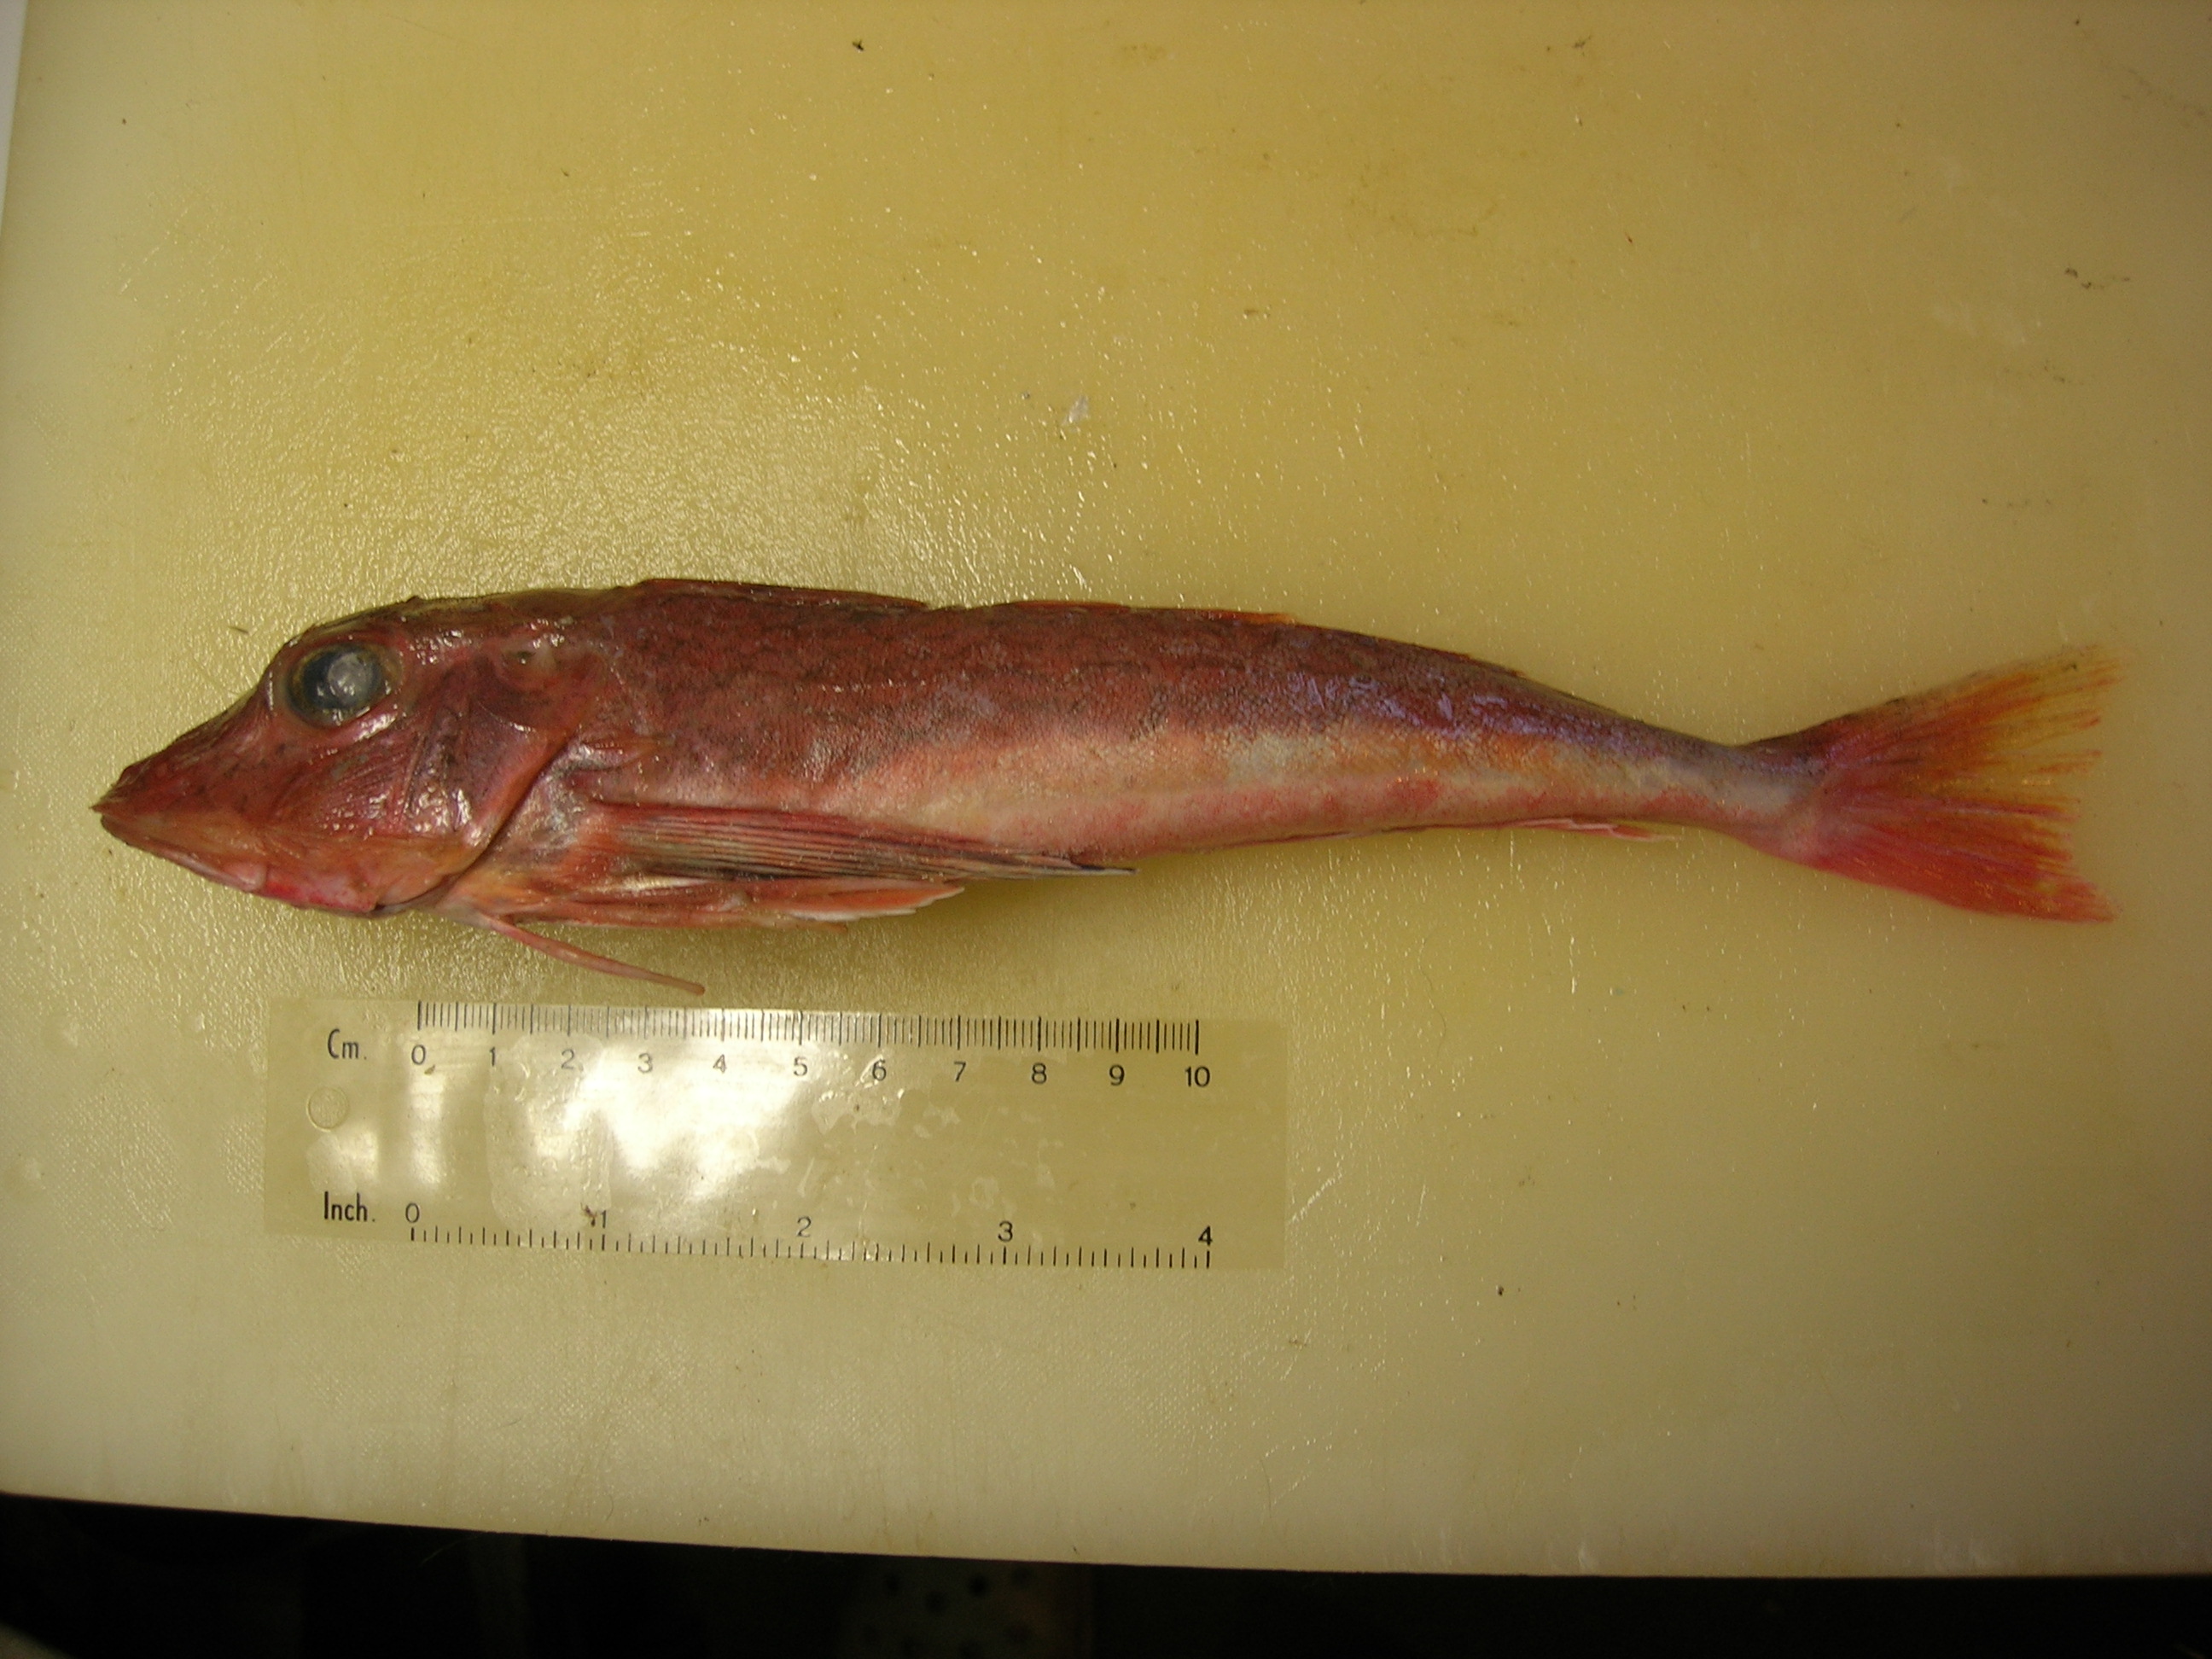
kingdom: Animalia
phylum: Chordata
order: Scorpaeniformes
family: Triglidae
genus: Chelidonichthys
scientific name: Chelidonichthys kumu
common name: Bluefin gurnard
